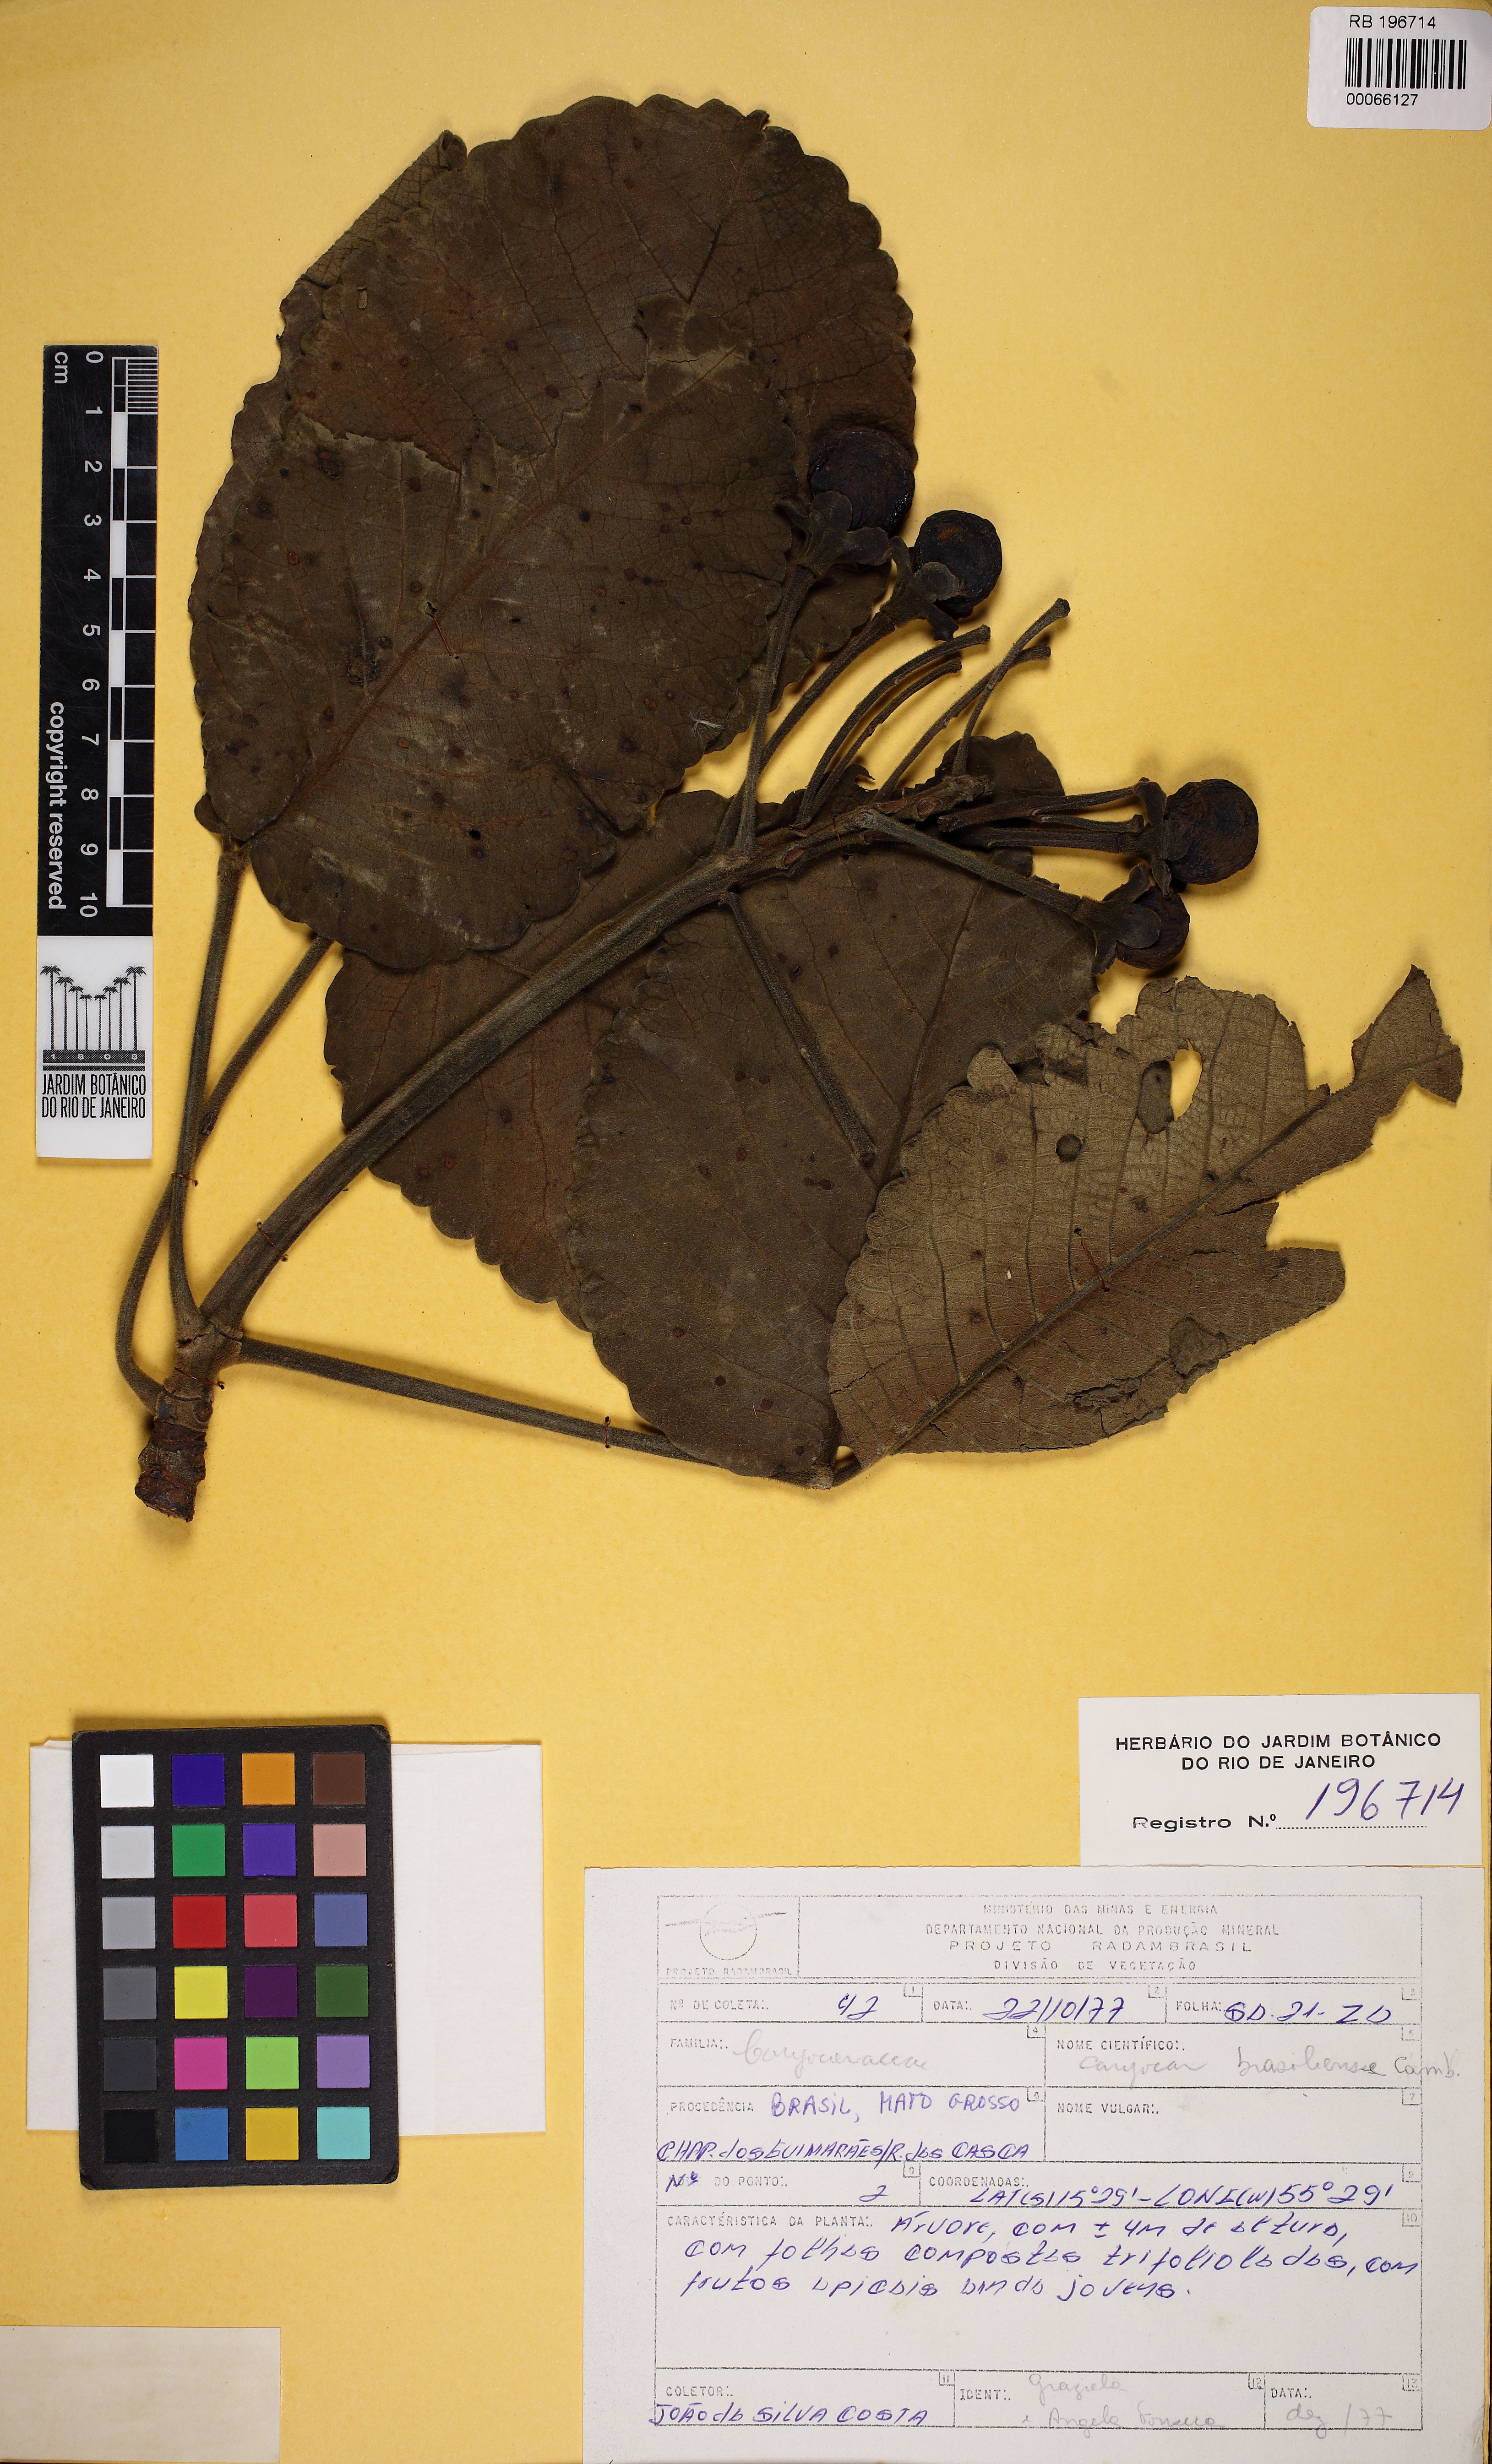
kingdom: Plantae
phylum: Tracheophyta
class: Magnoliopsida
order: Malpighiales
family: Caryocaraceae
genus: Caryocar
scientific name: Caryocar brasiliense
